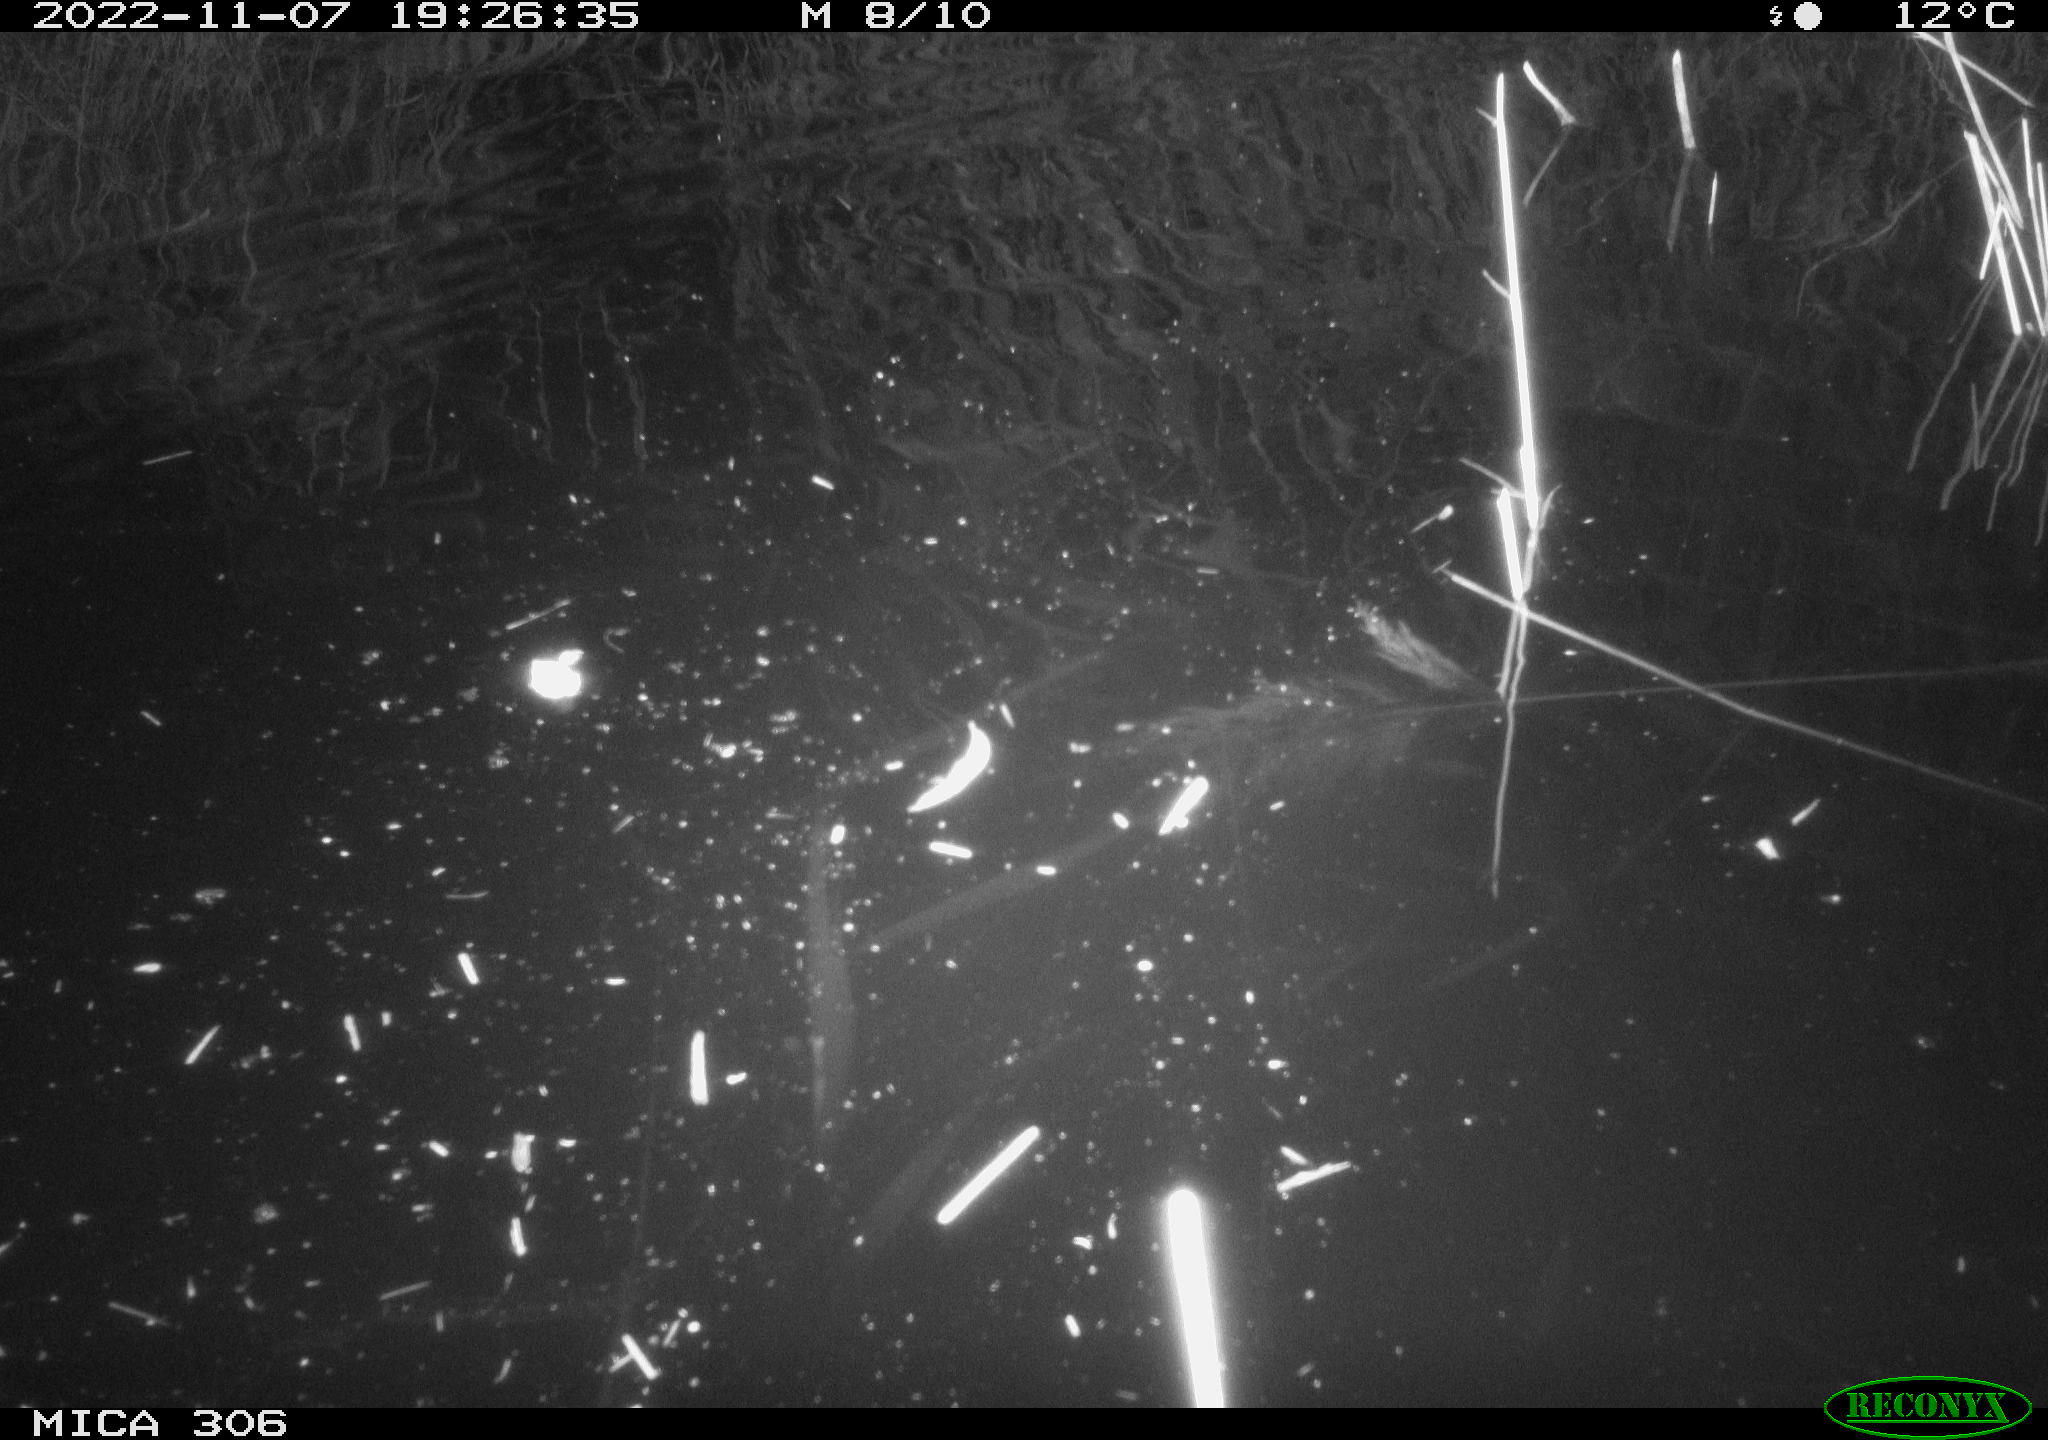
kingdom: Animalia
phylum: Chordata
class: Mammalia
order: Rodentia
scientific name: Rodentia
